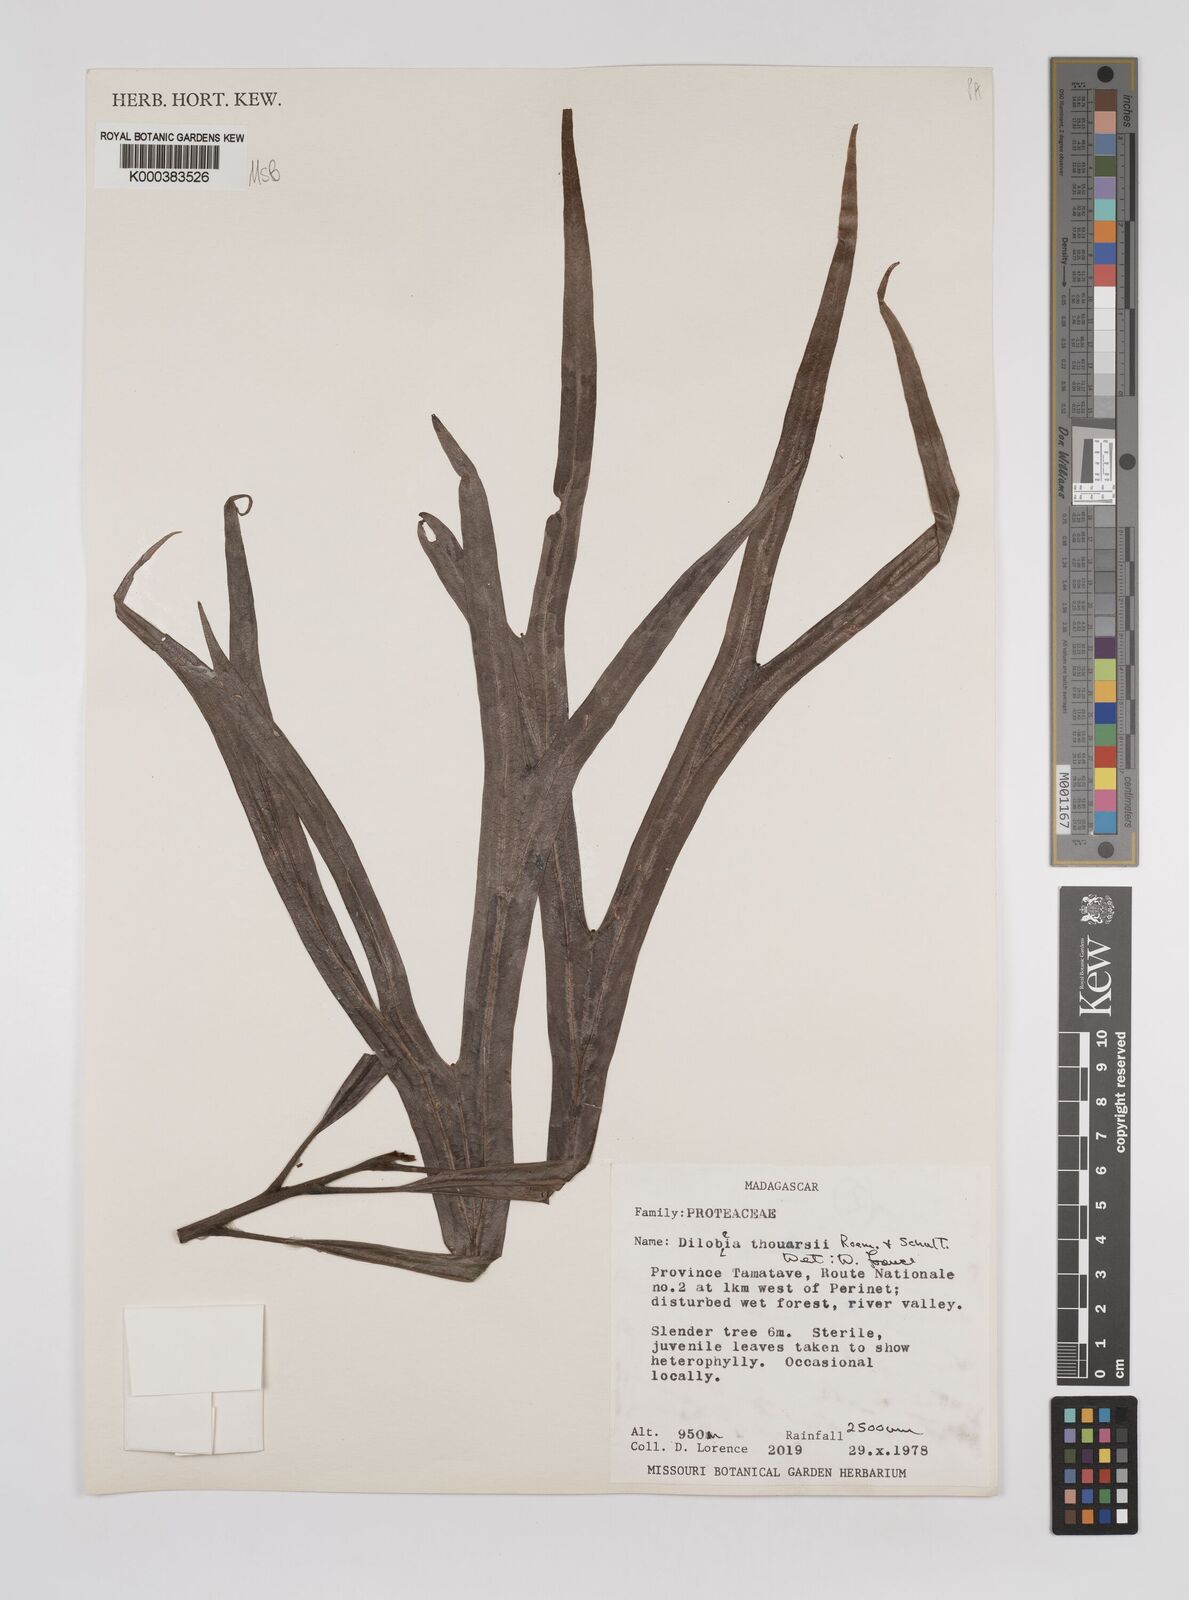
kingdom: Plantae
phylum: Tracheophyta
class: Magnoliopsida
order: Proteales
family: Proteaceae
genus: Dilobeia
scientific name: Dilobeia thouarsii
